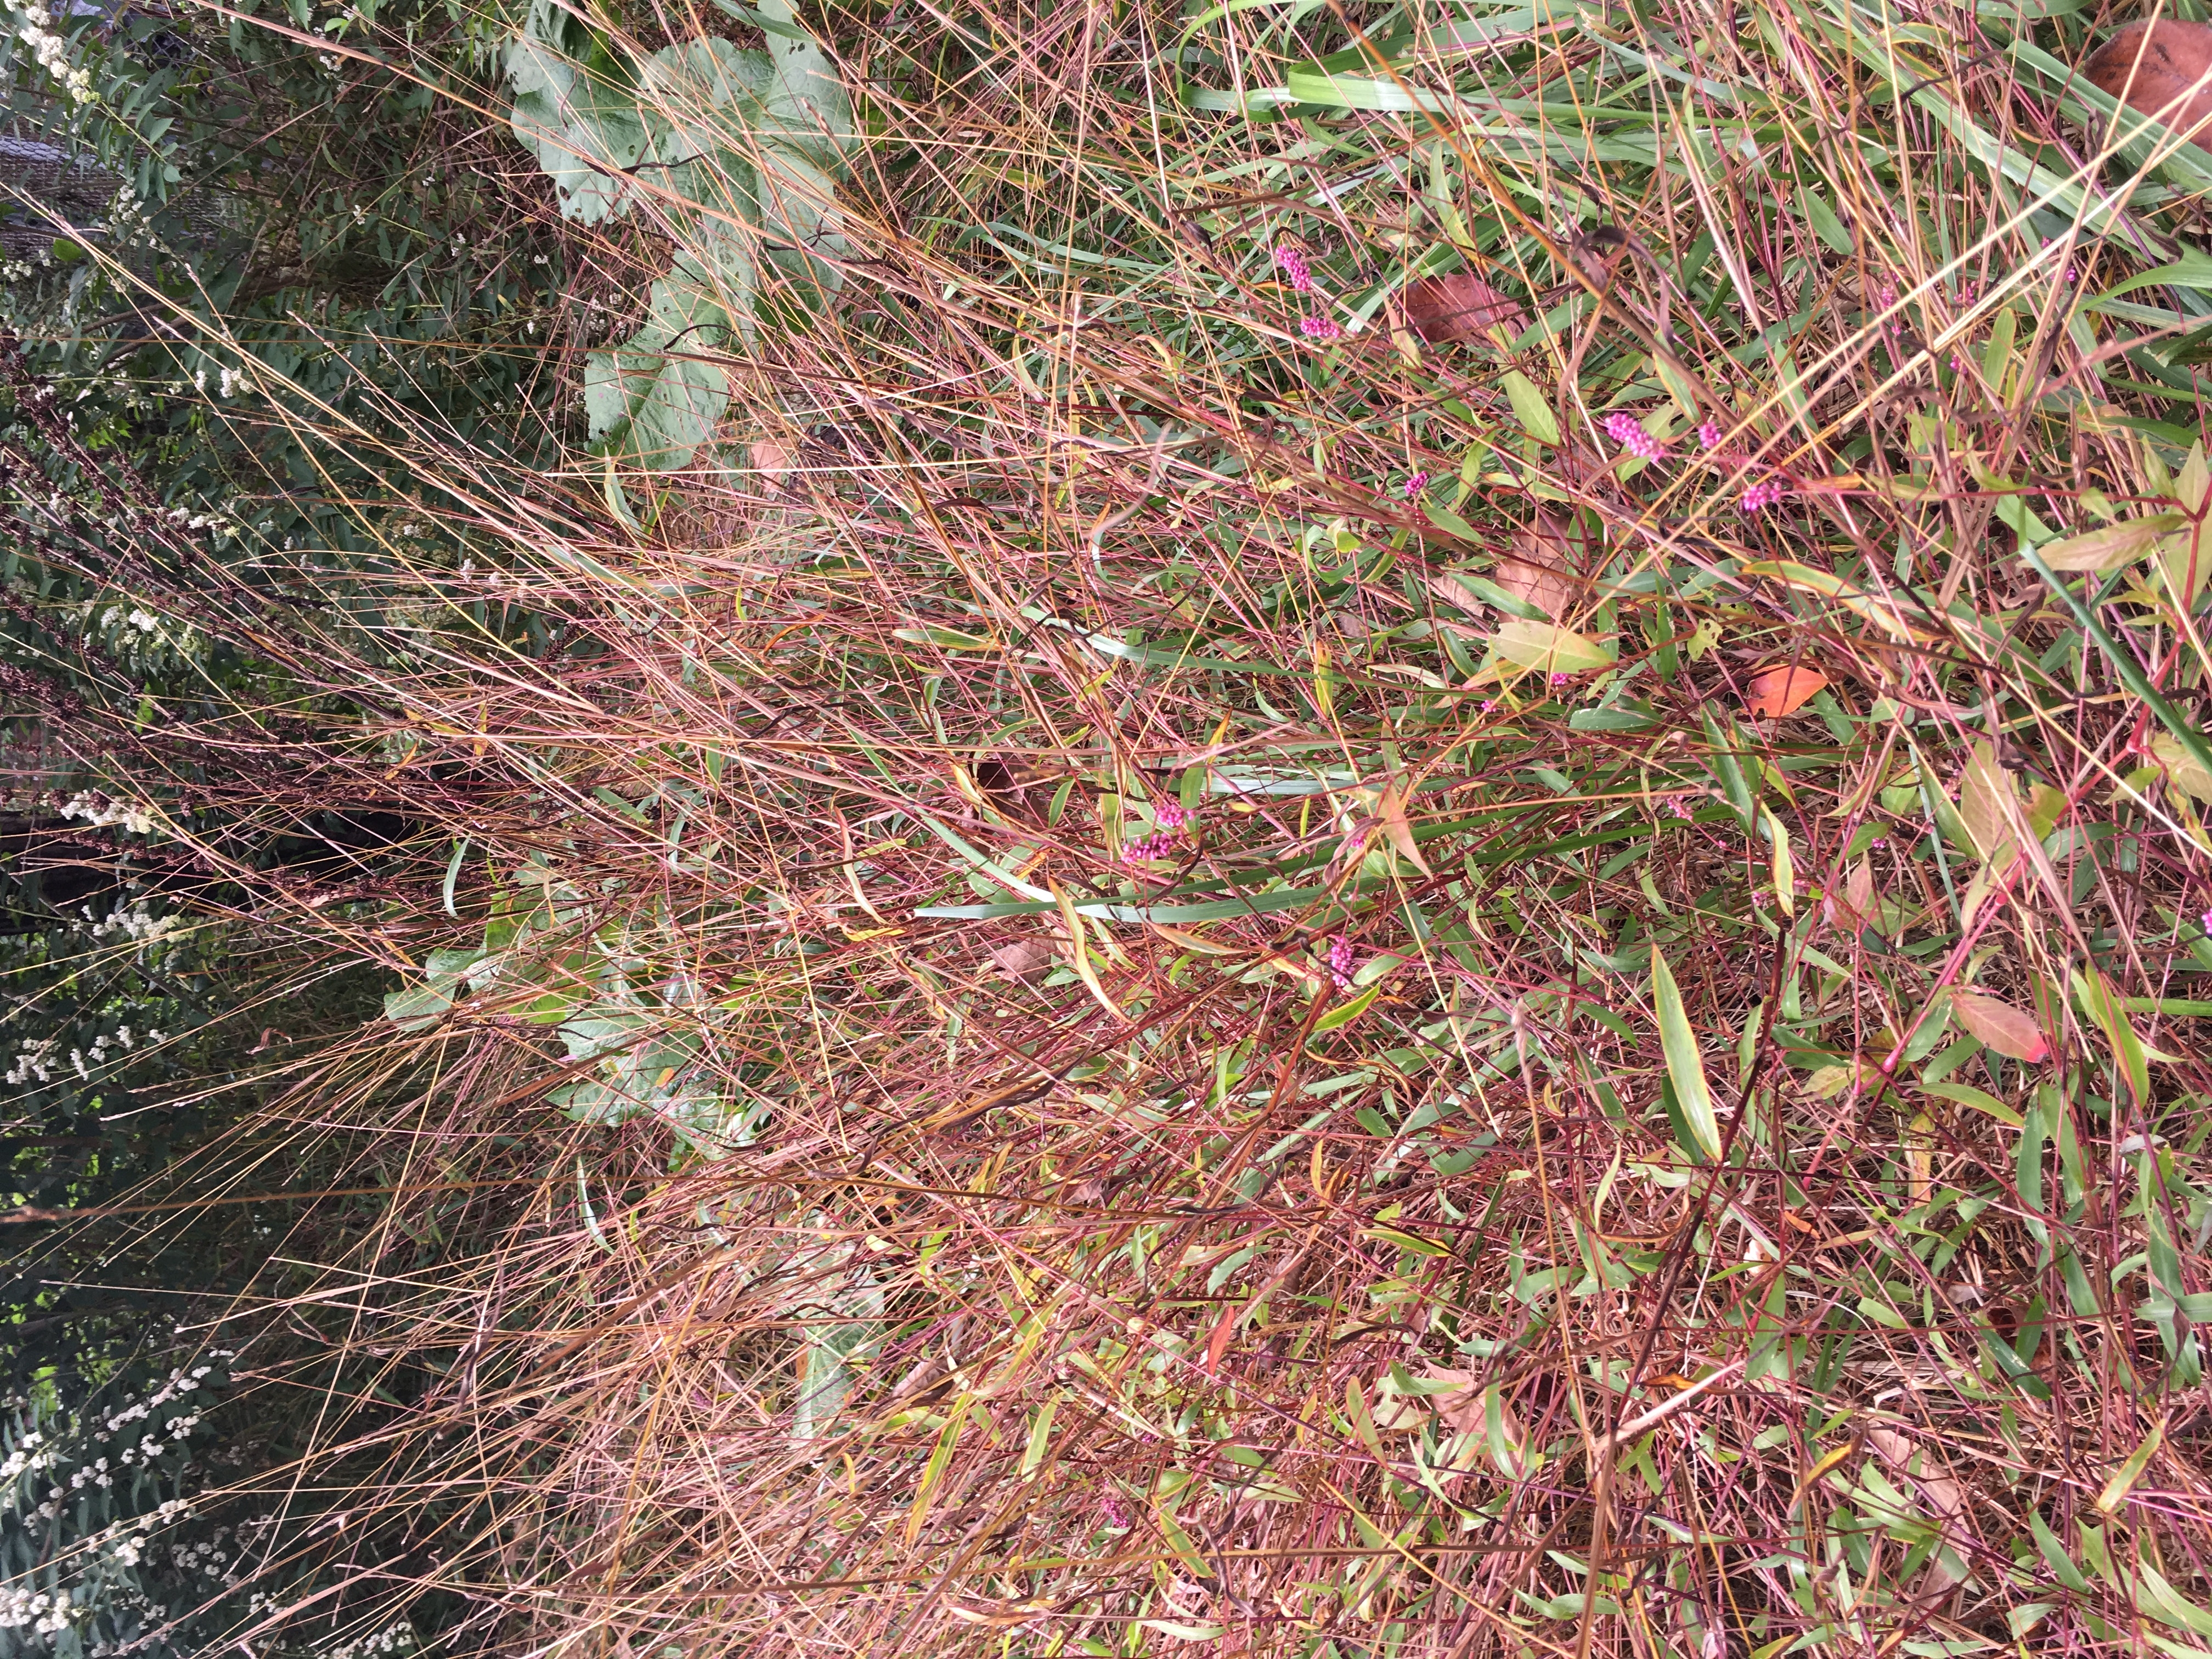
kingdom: Plantae
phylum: Tracheophyta
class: Magnoliopsida
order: Caryophyllales
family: Polygonaceae
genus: Persicaria
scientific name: Persicaria longiseta
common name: Low smartweed
